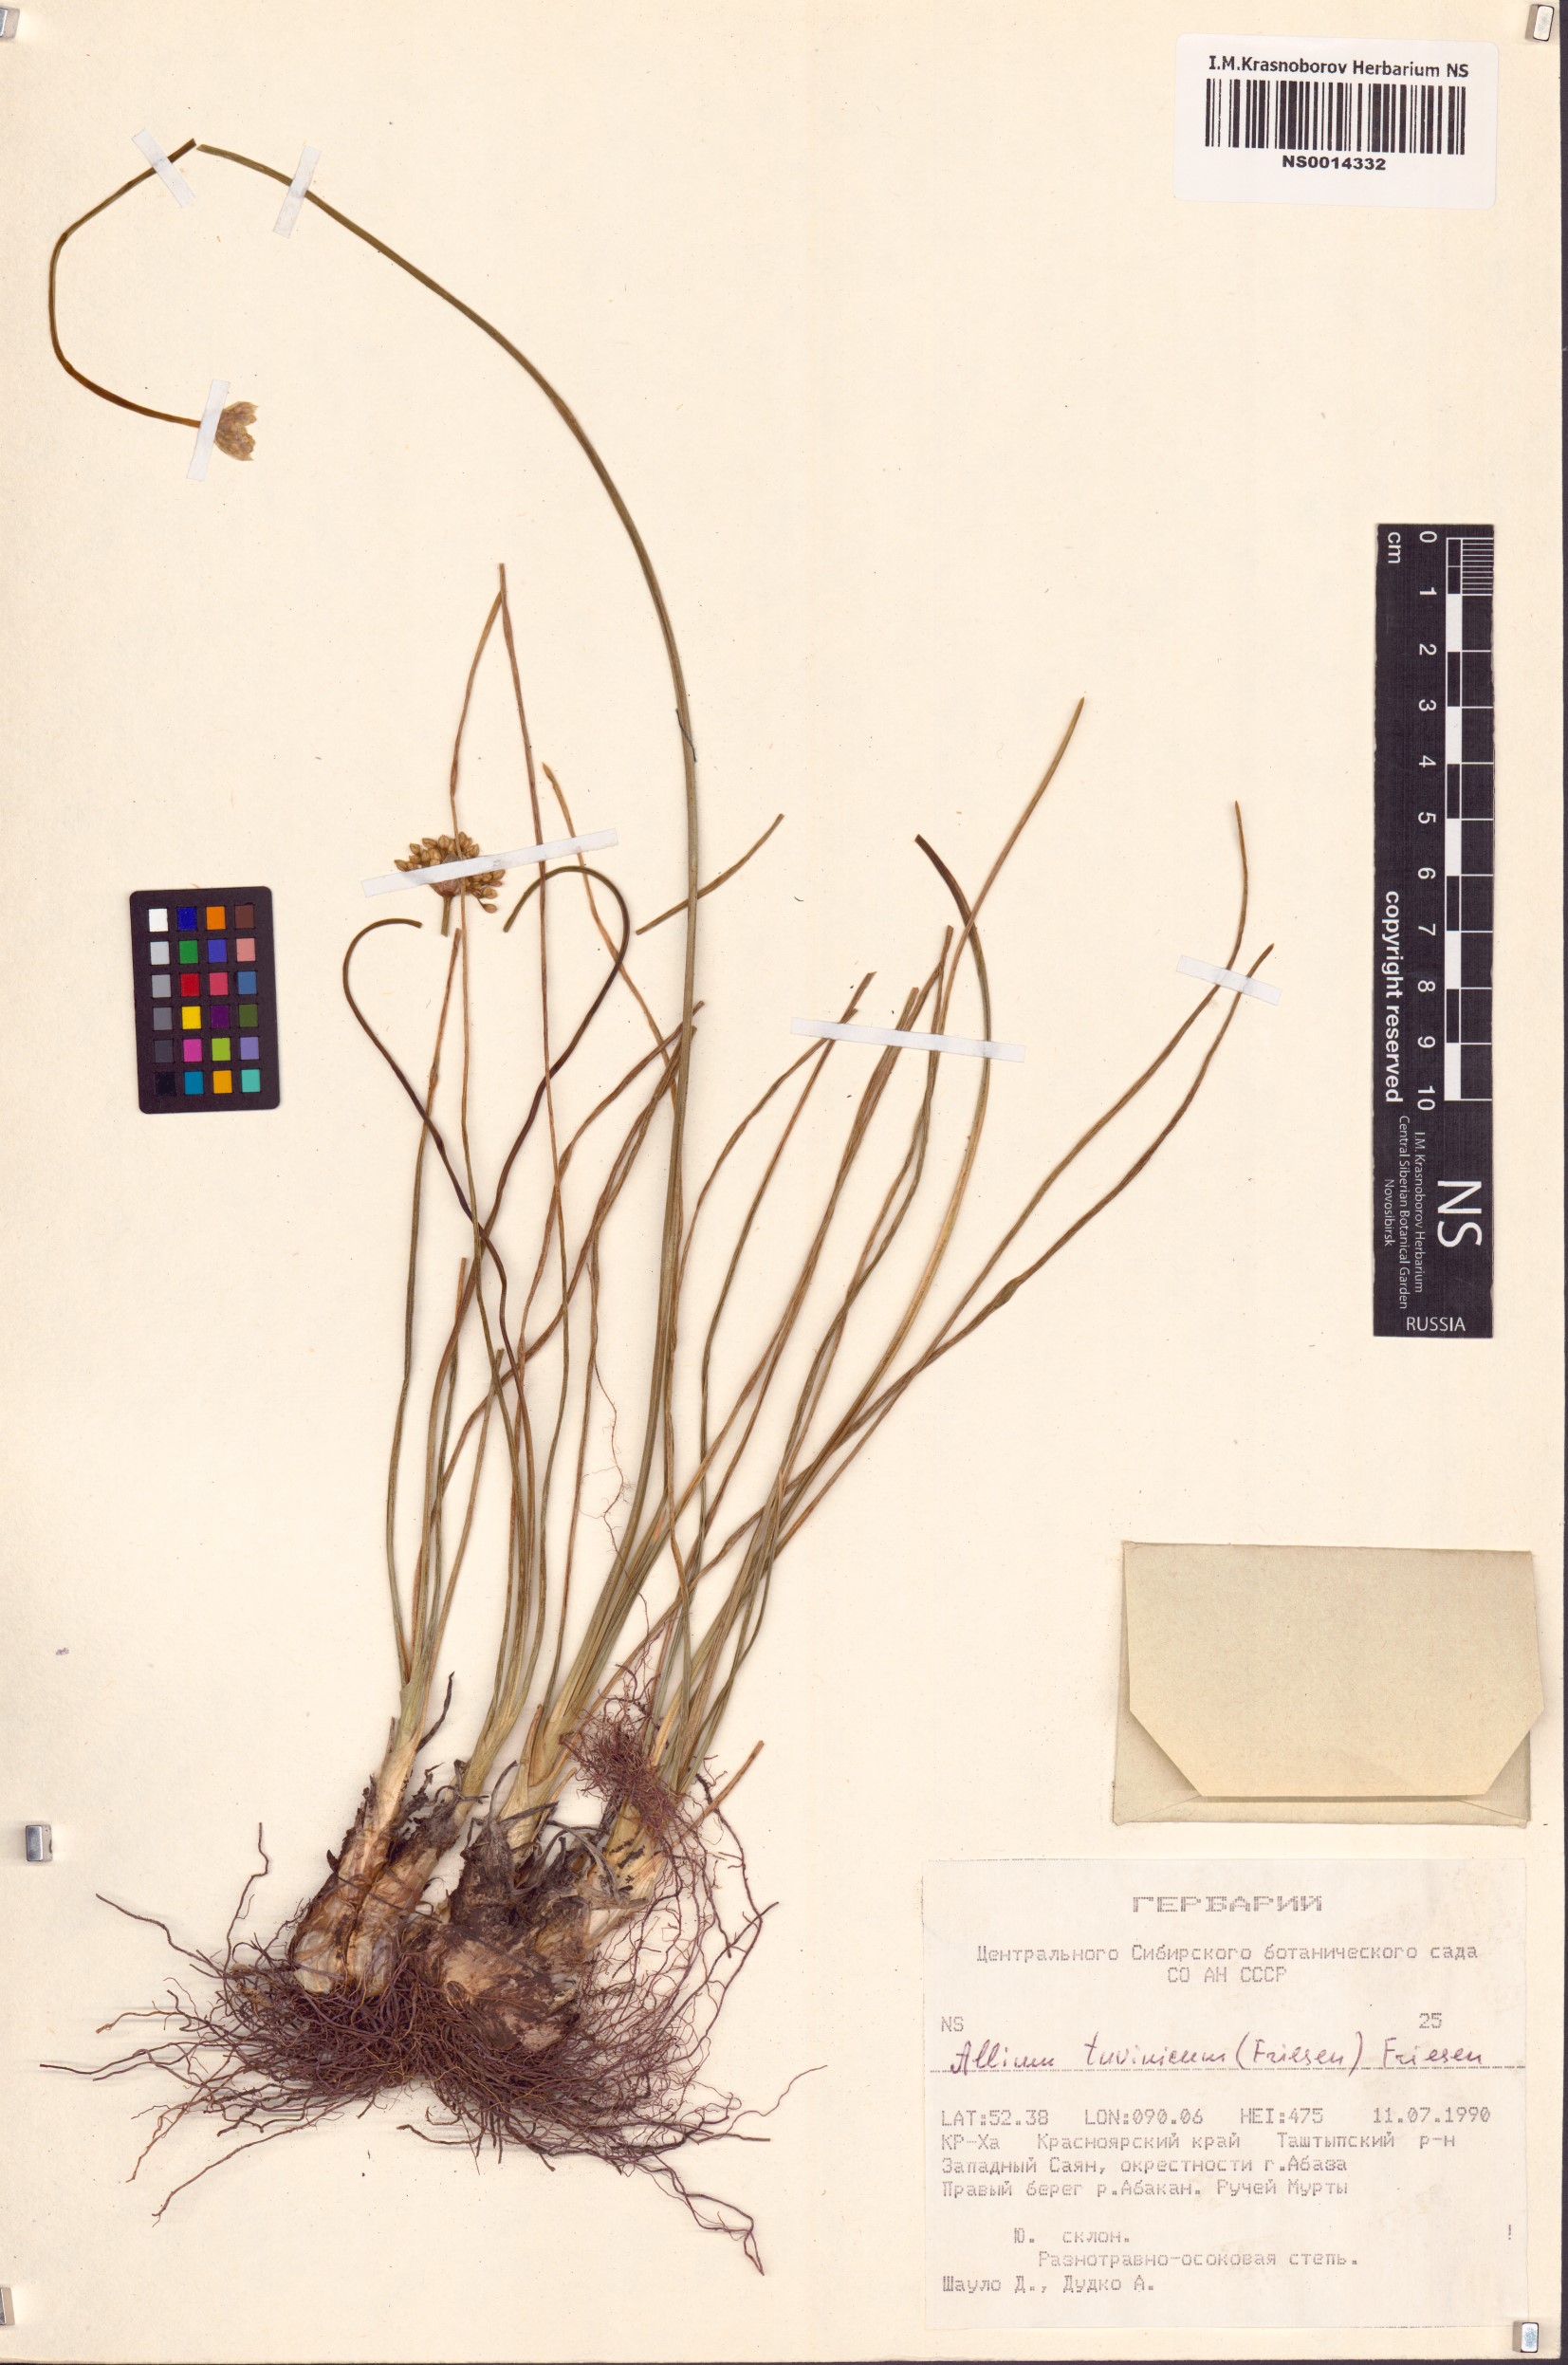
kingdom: Plantae
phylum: Tracheophyta
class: Liliopsida
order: Asparagales
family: Amaryllidaceae
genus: Allium
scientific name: Allium tuvinicum
